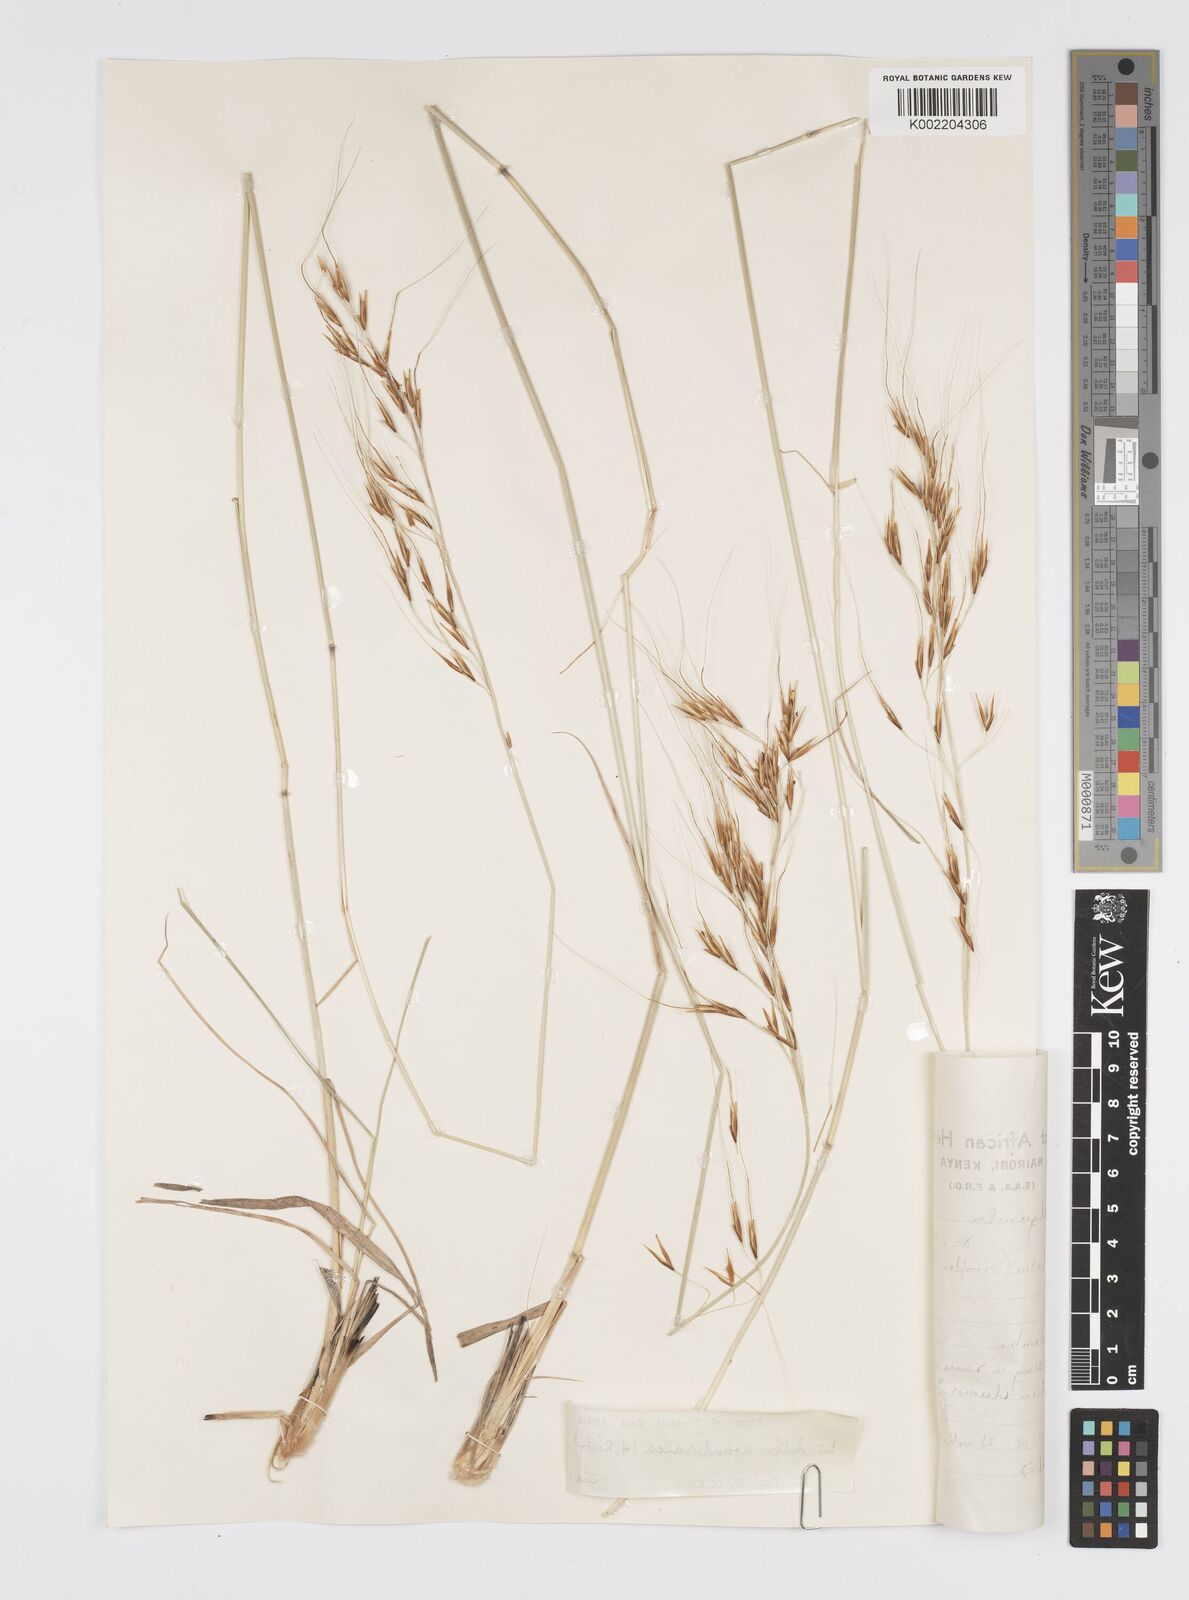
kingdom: Plantae
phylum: Tracheophyta
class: Liliopsida
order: Poales
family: Poaceae
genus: Loudetia
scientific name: Loudetia arundinacea
